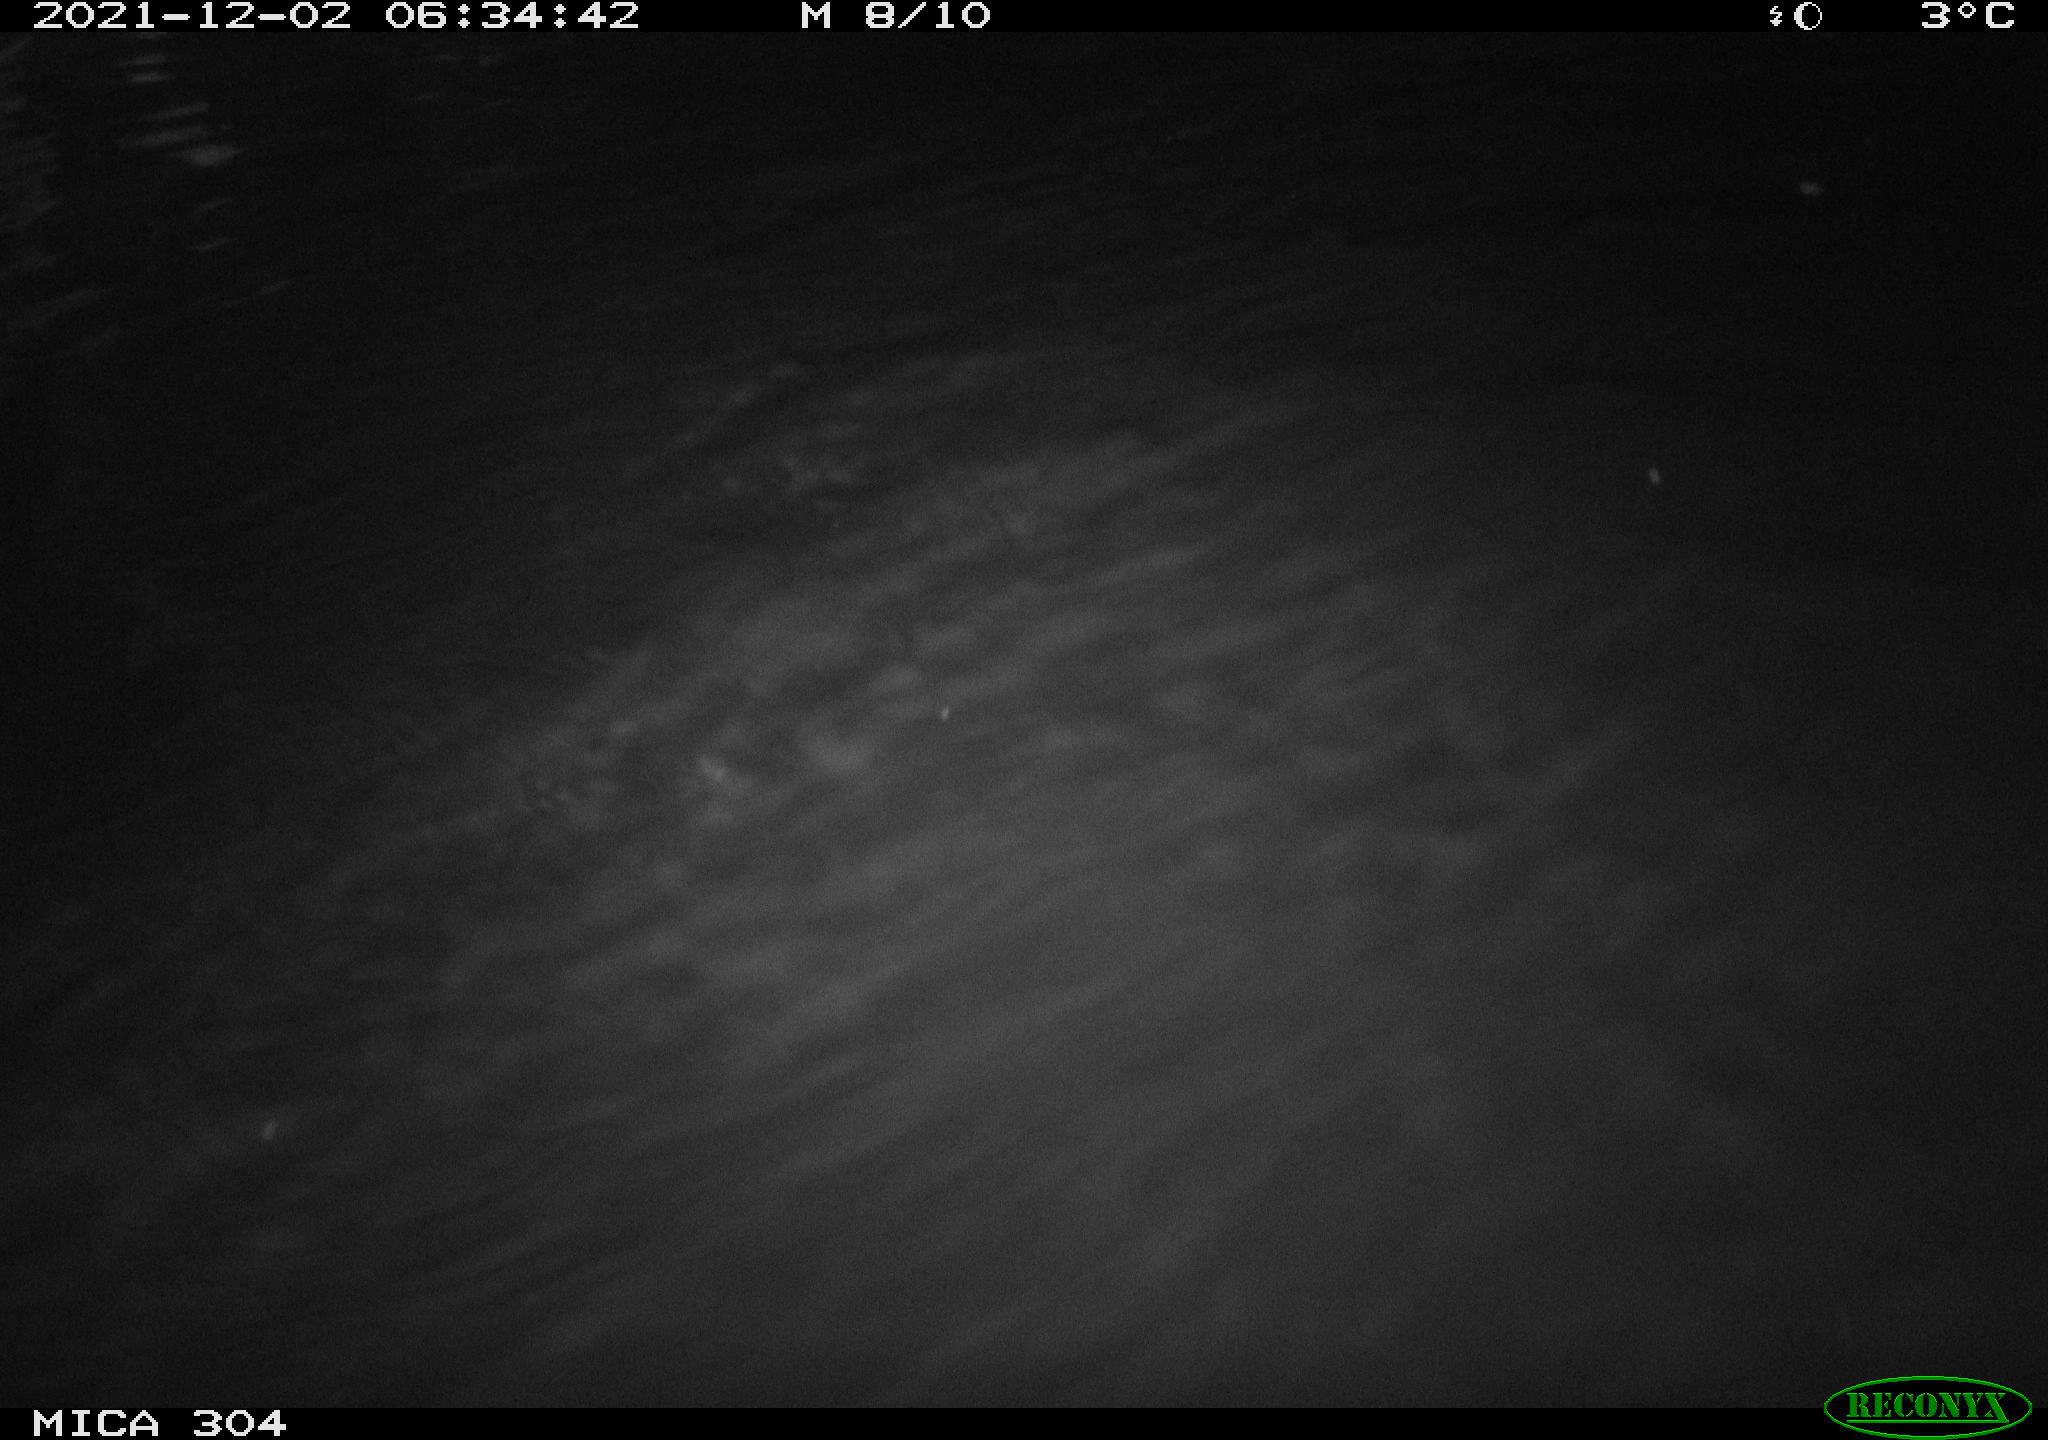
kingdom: Animalia
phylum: Chordata
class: Mammalia
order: Rodentia
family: Muridae
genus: Rattus
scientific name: Rattus norvegicus
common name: Brown rat
